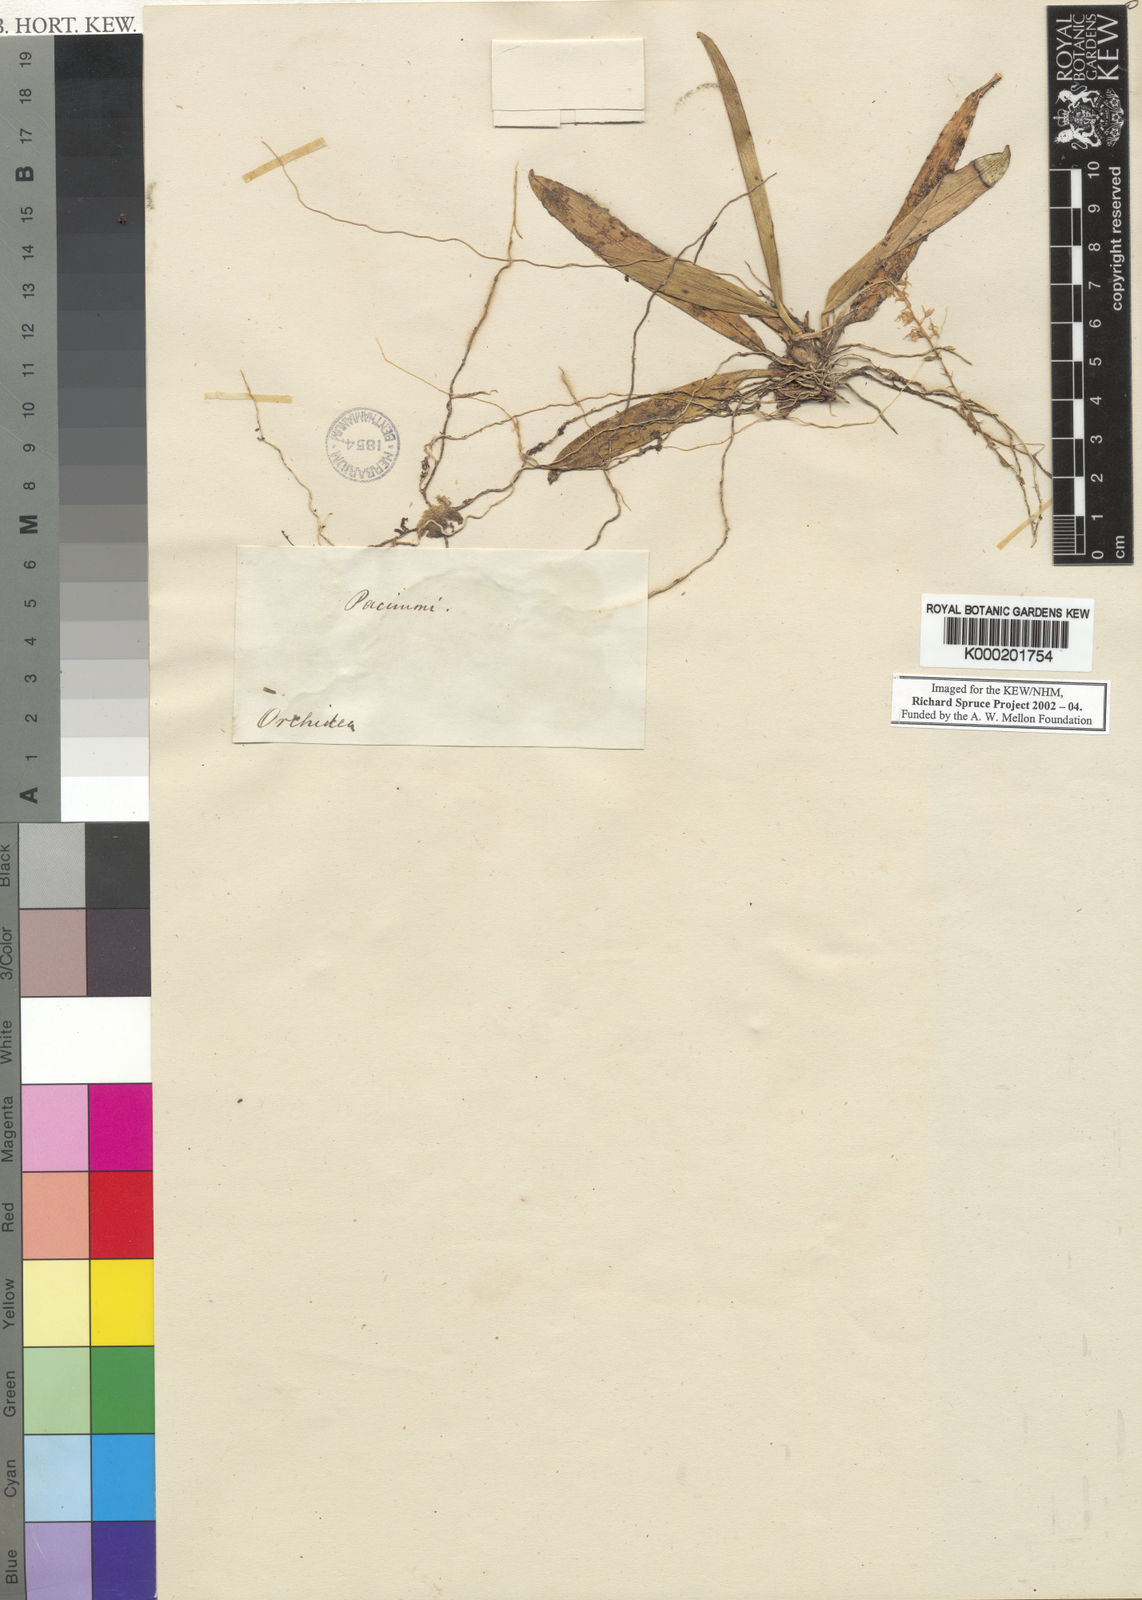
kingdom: Plantae
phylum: Tracheophyta
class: Liliopsida
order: Asparagales
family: Orchidaceae
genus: Notylia
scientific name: Notylia
